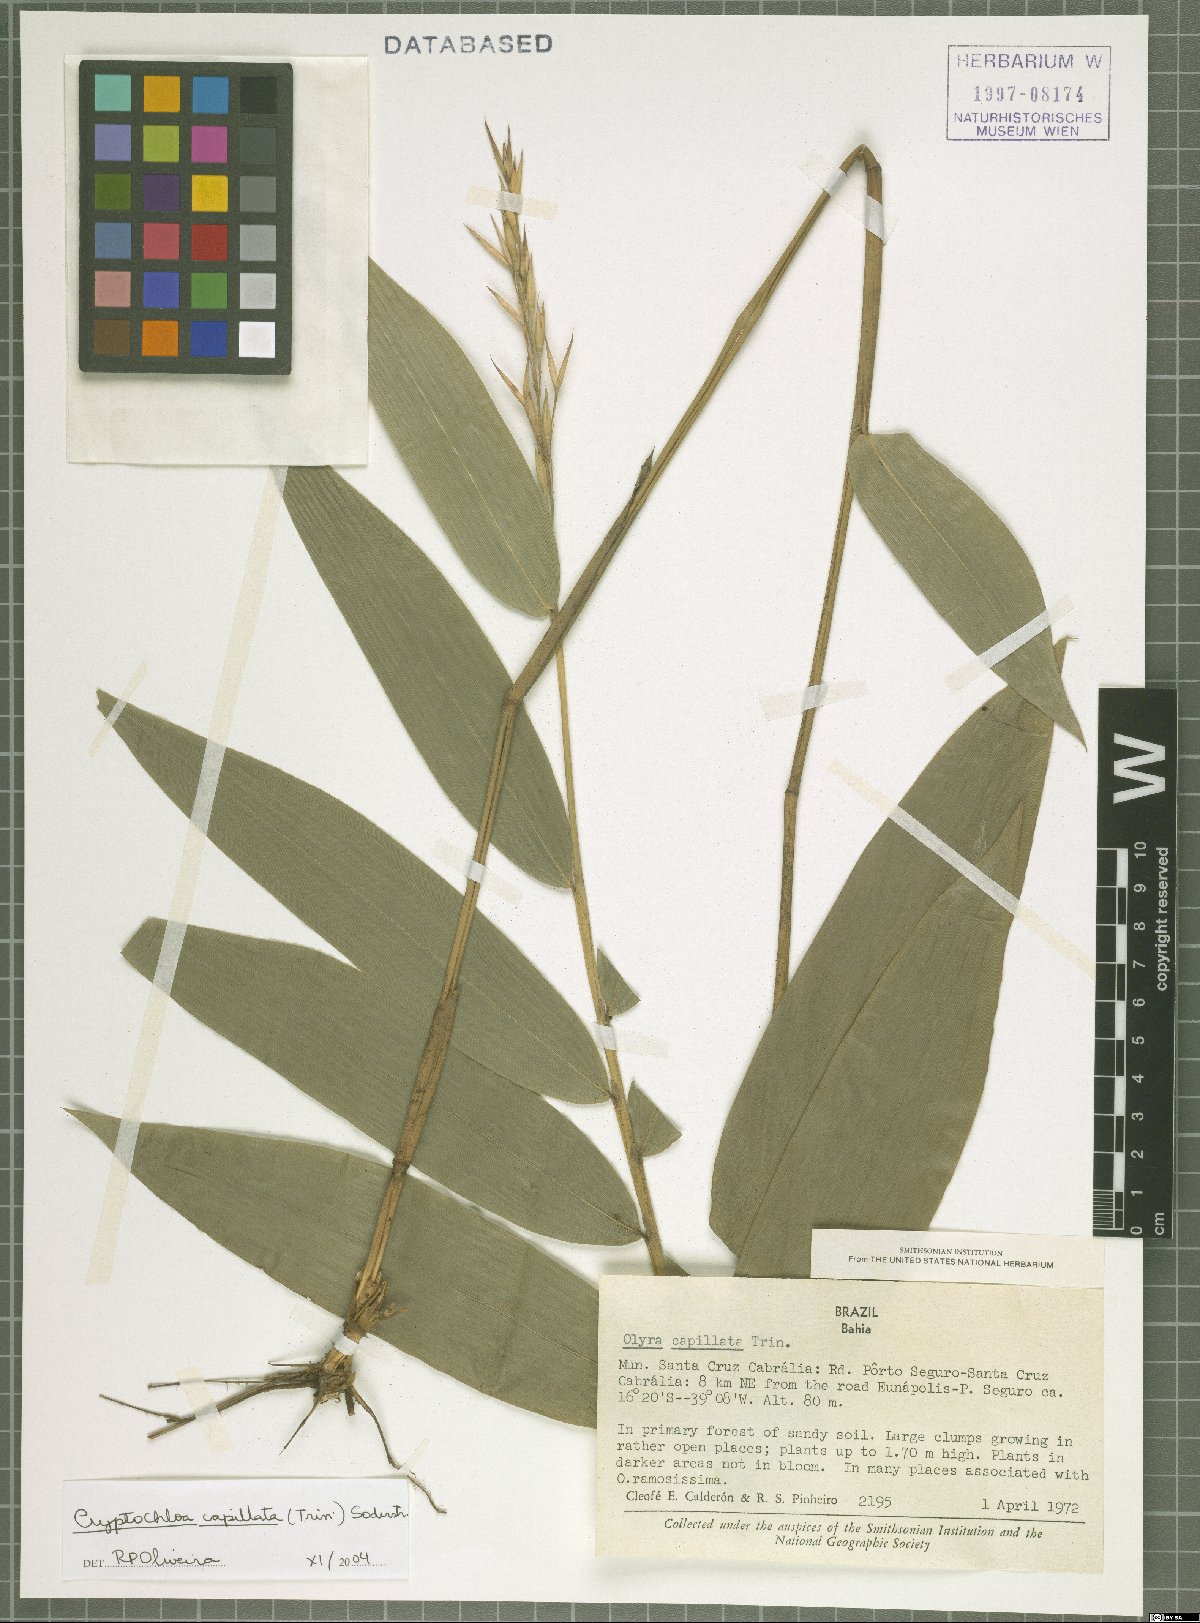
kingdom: Plantae
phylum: Tracheophyta
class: Liliopsida
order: Poales
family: Poaceae
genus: Cryptochloa
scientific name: Cryptochloa capillata
